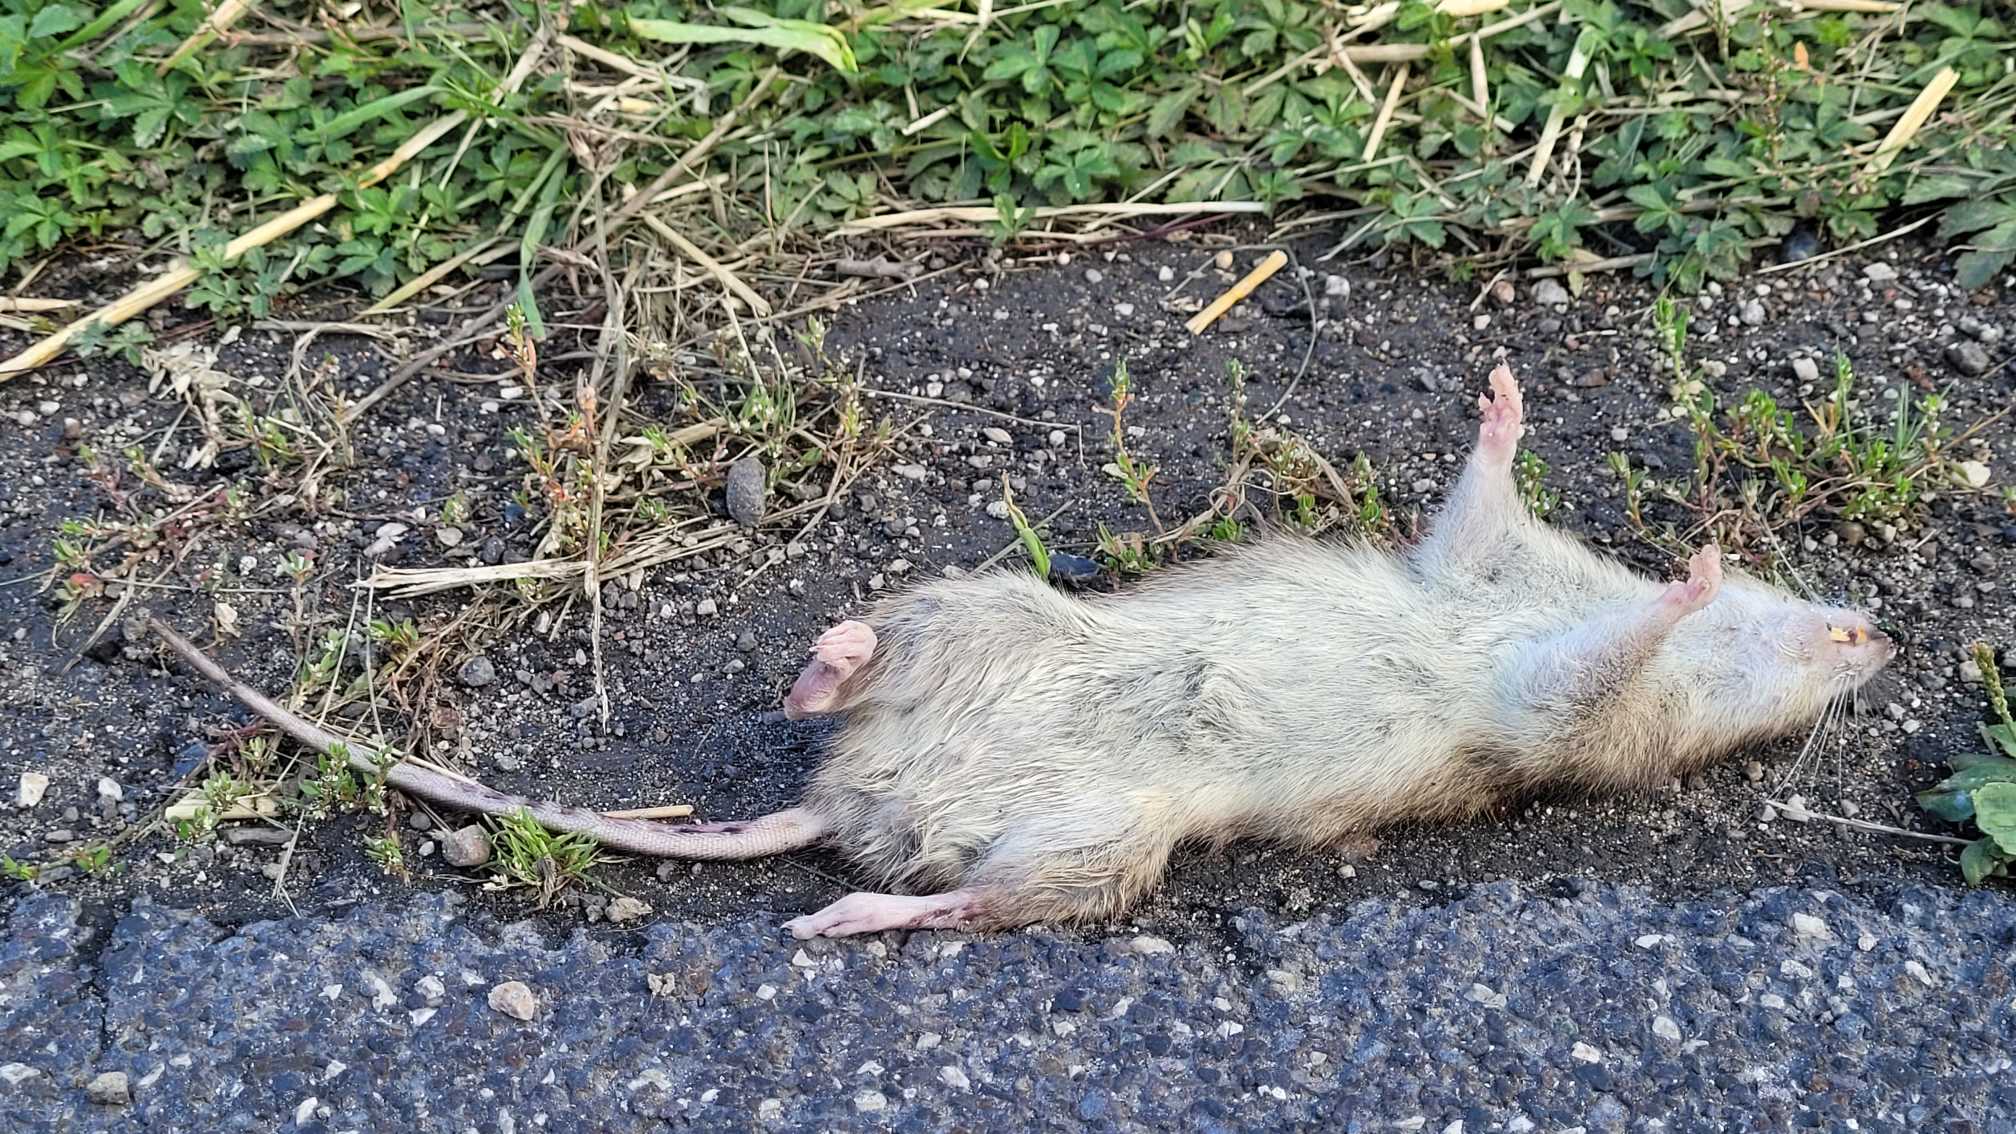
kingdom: Animalia
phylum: Chordata
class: Mammalia
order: Rodentia
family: Muridae
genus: Rattus
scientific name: Rattus norvegicus
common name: Brun rotte
